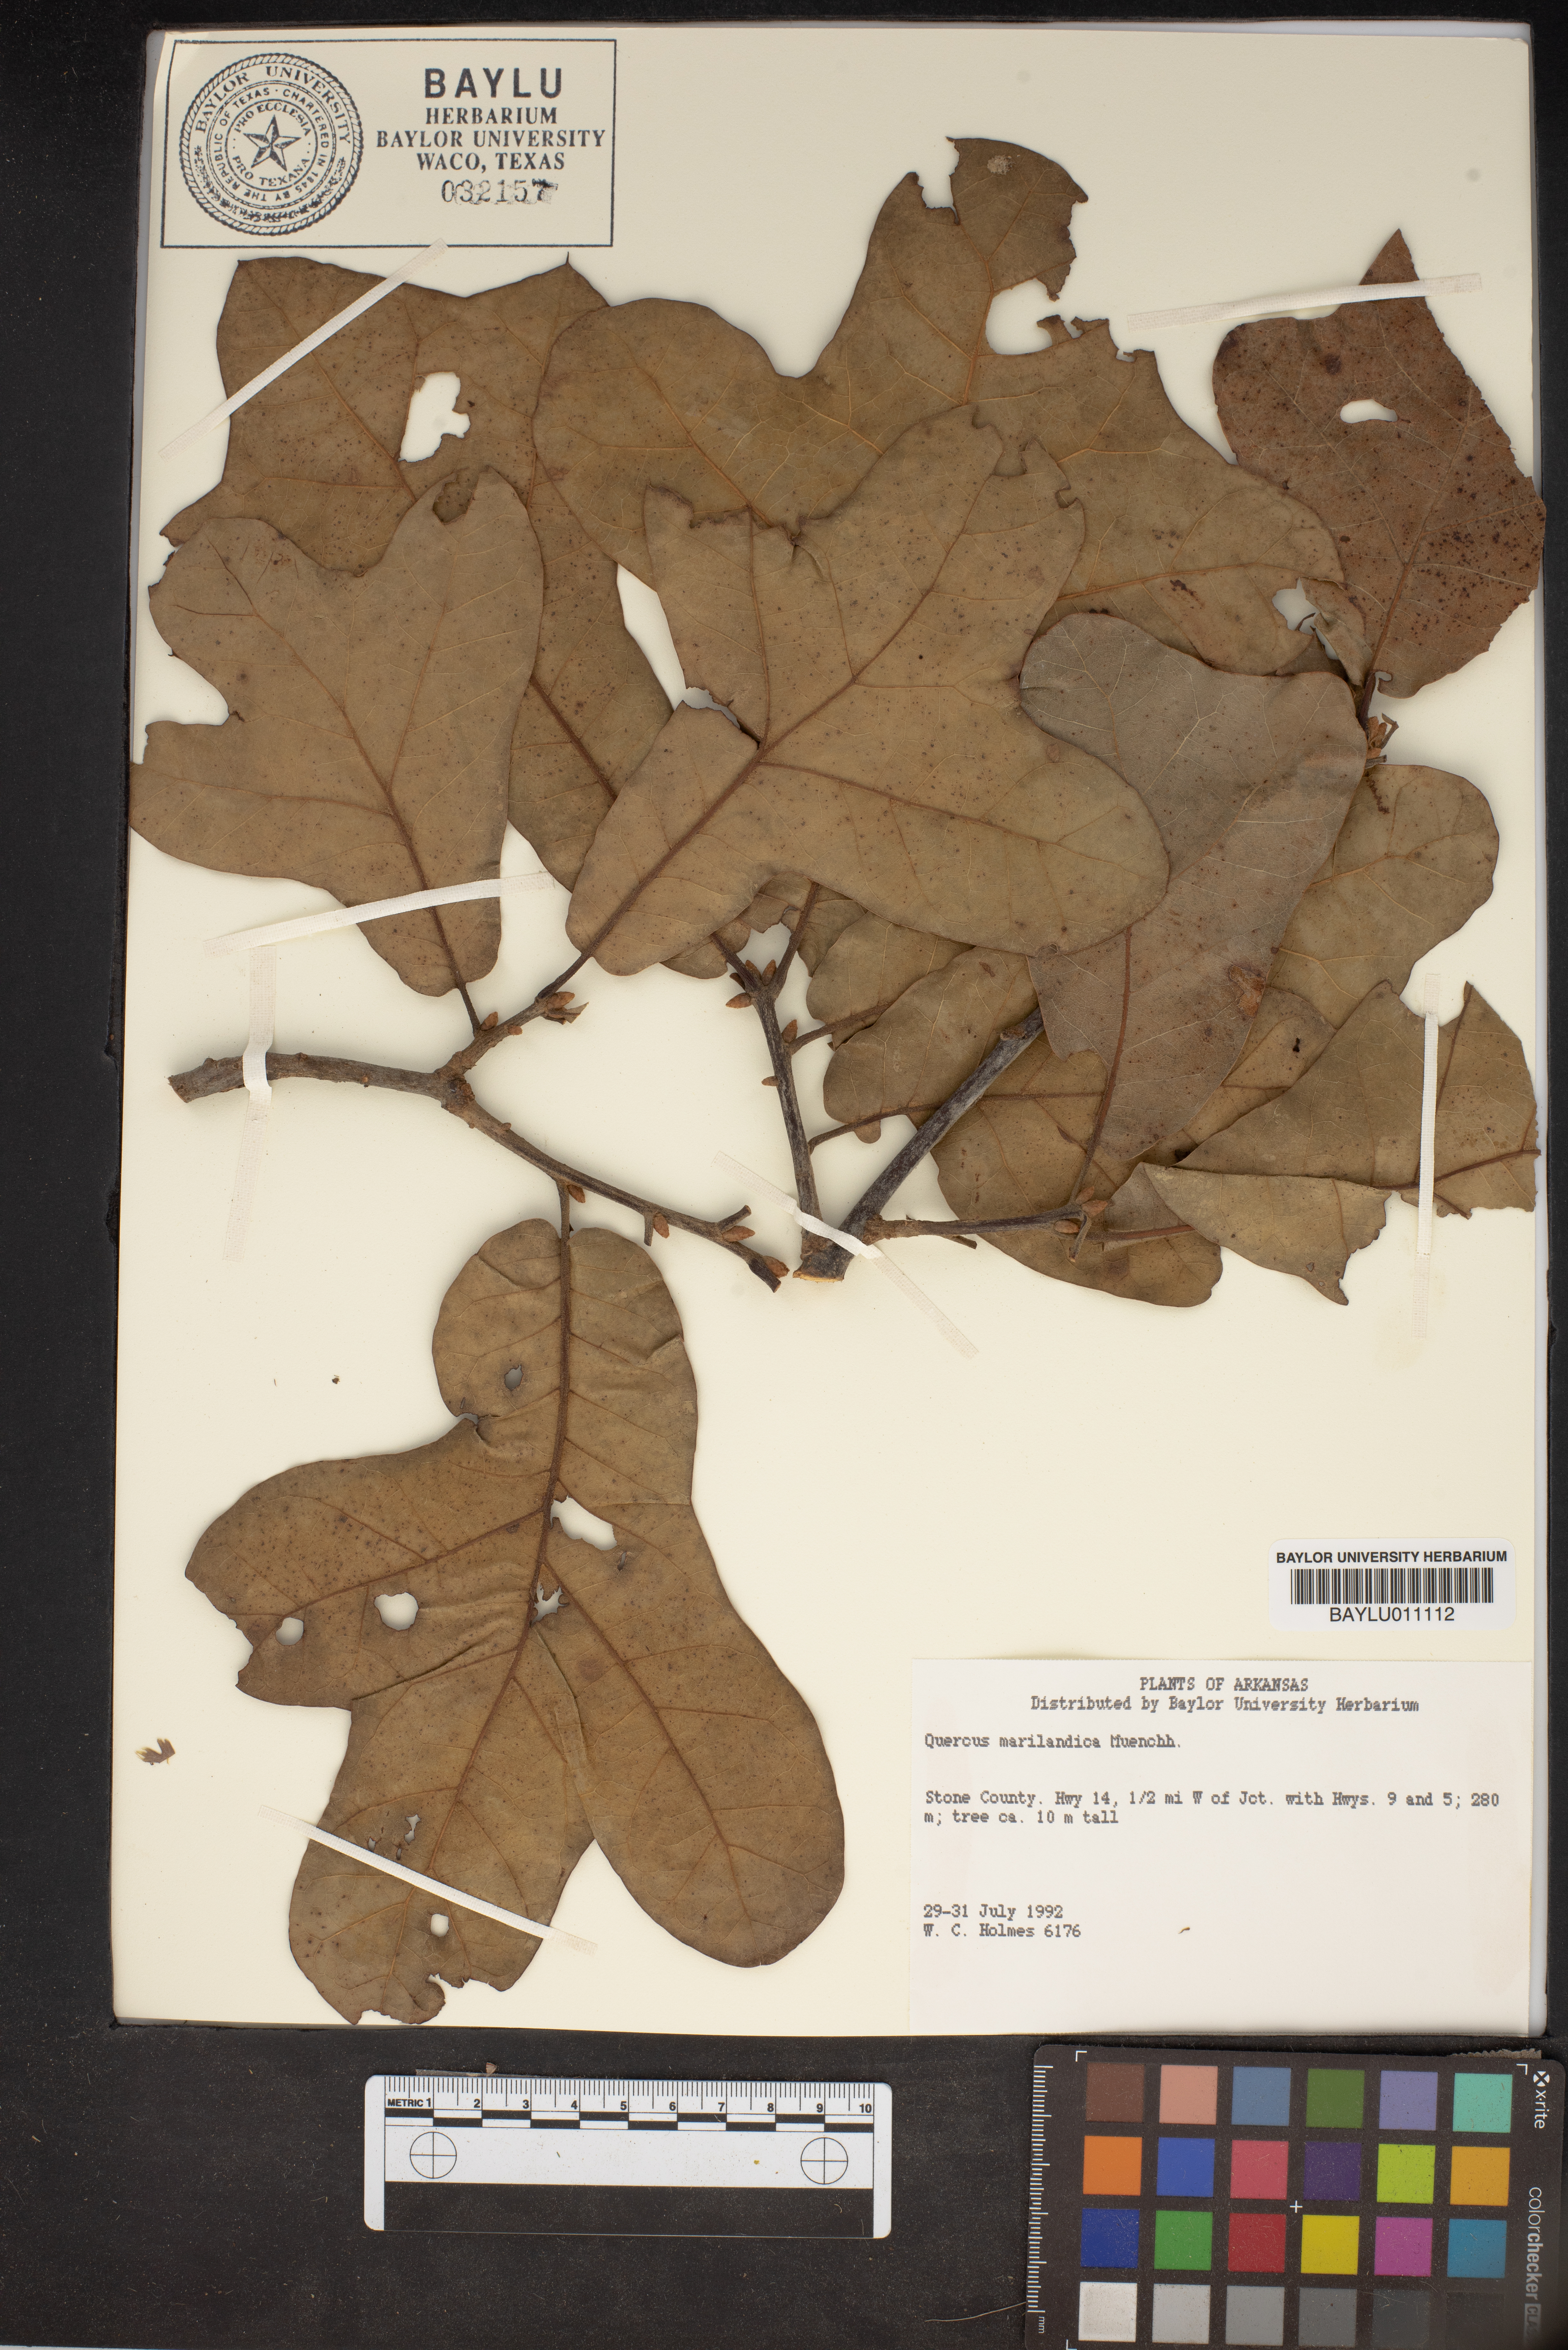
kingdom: Plantae
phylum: Tracheophyta
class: Magnoliopsida
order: Fagales
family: Fagaceae
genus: Quercus
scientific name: Quercus marilandica
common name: Blackjack oak
